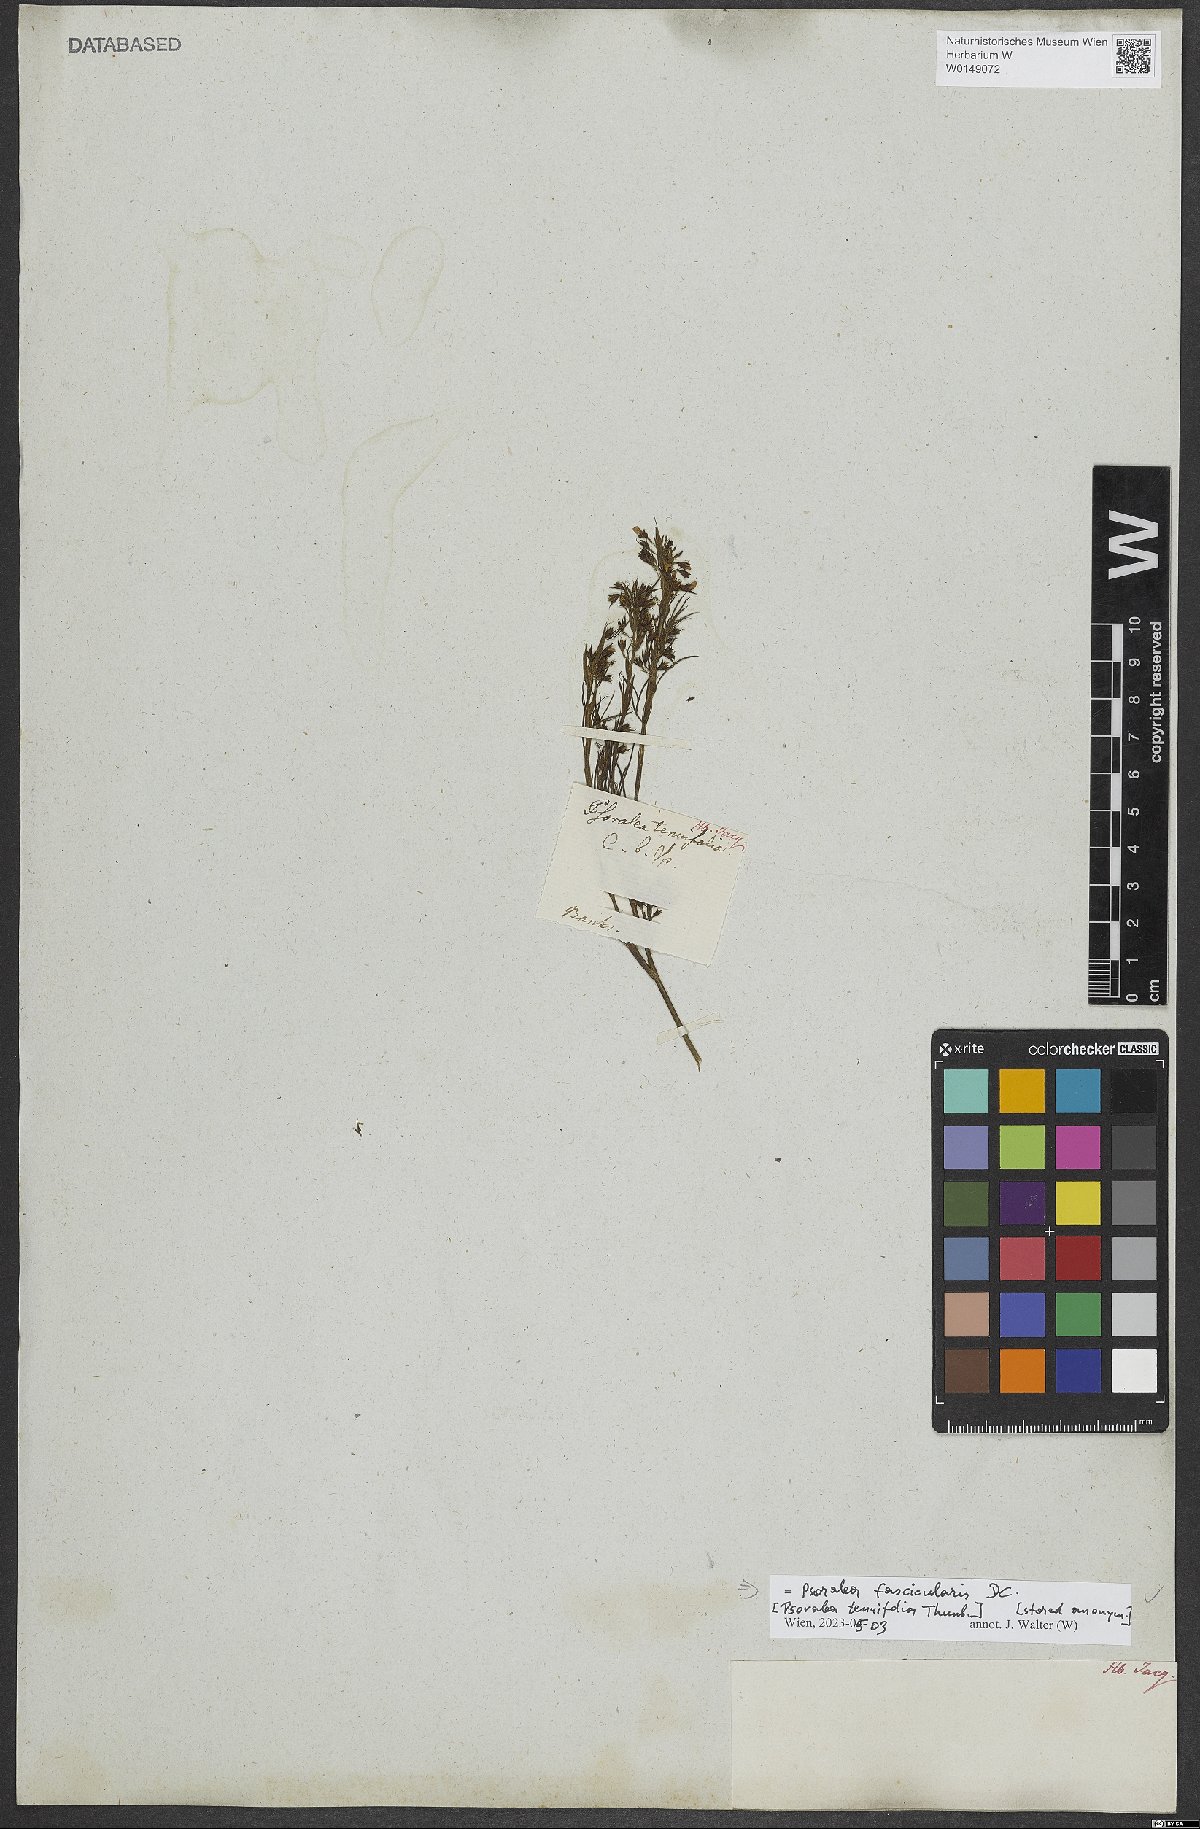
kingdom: Plantae
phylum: Tracheophyta
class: Magnoliopsida
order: Fabales
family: Fabaceae
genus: Psoralea
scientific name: Psoralea fascicularis
